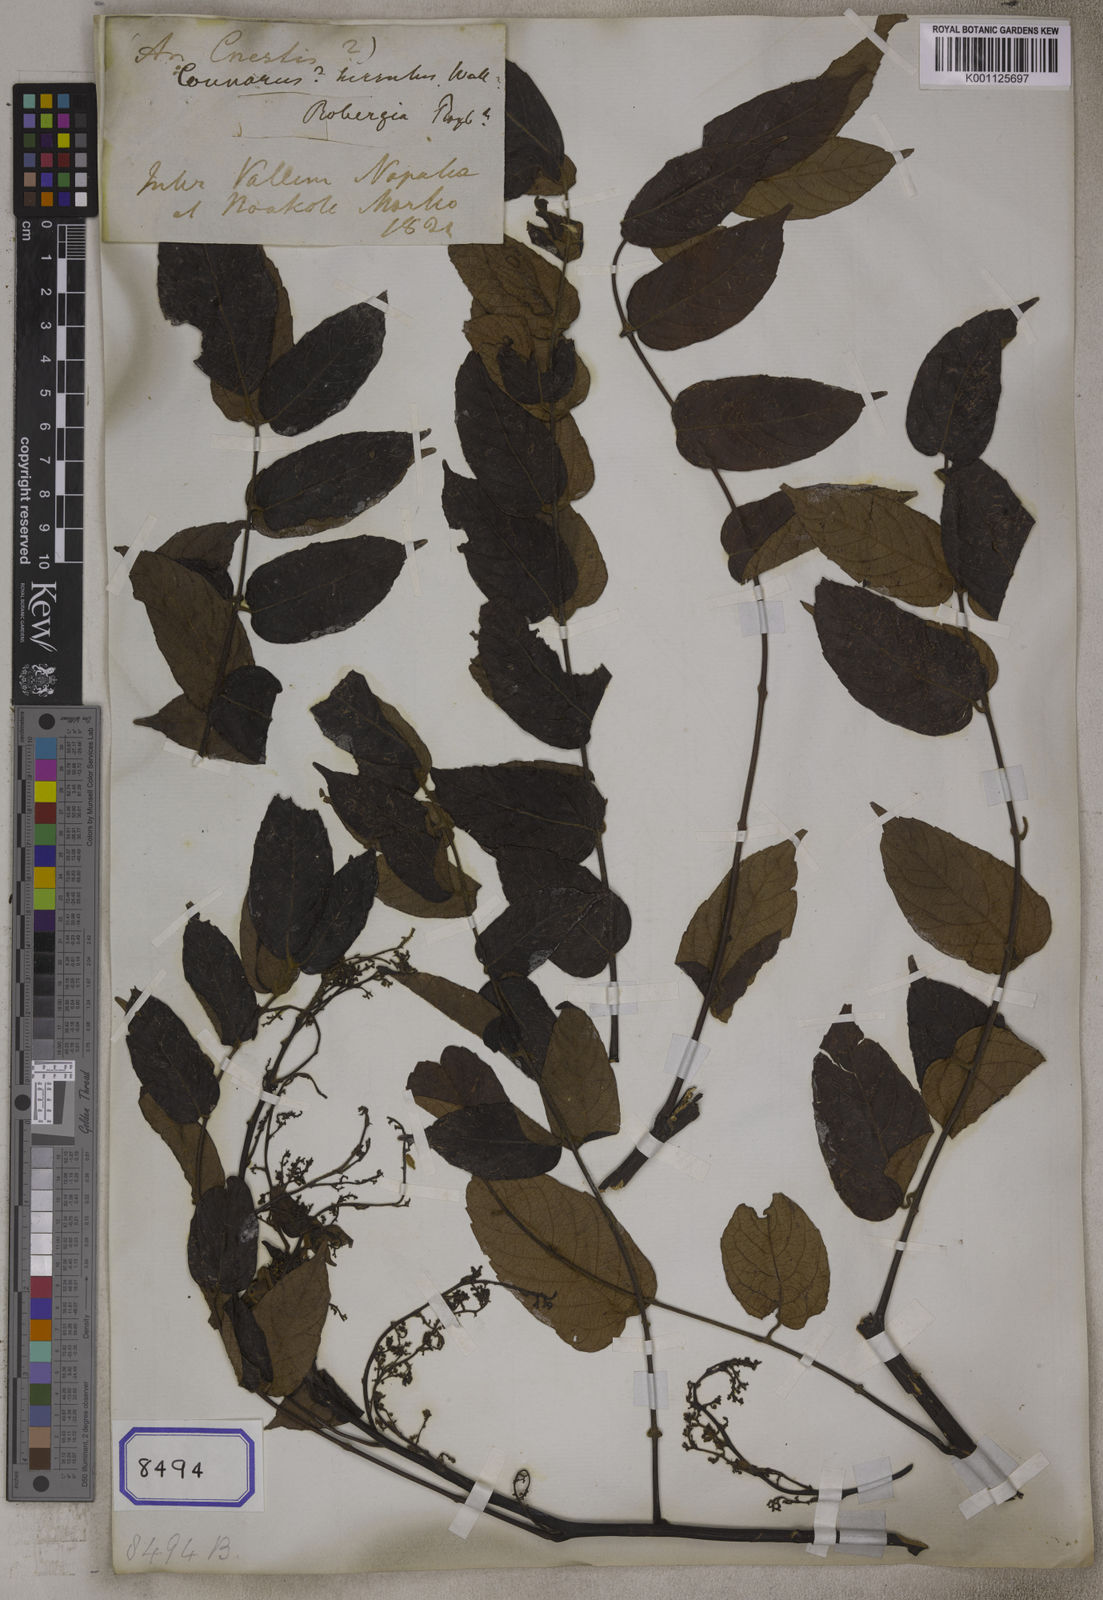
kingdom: Plantae
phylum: Tracheophyta
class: Magnoliopsida
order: Sapindales
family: Burseraceae
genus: Commiphora
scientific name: Commiphora caudata
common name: Hill-mango
